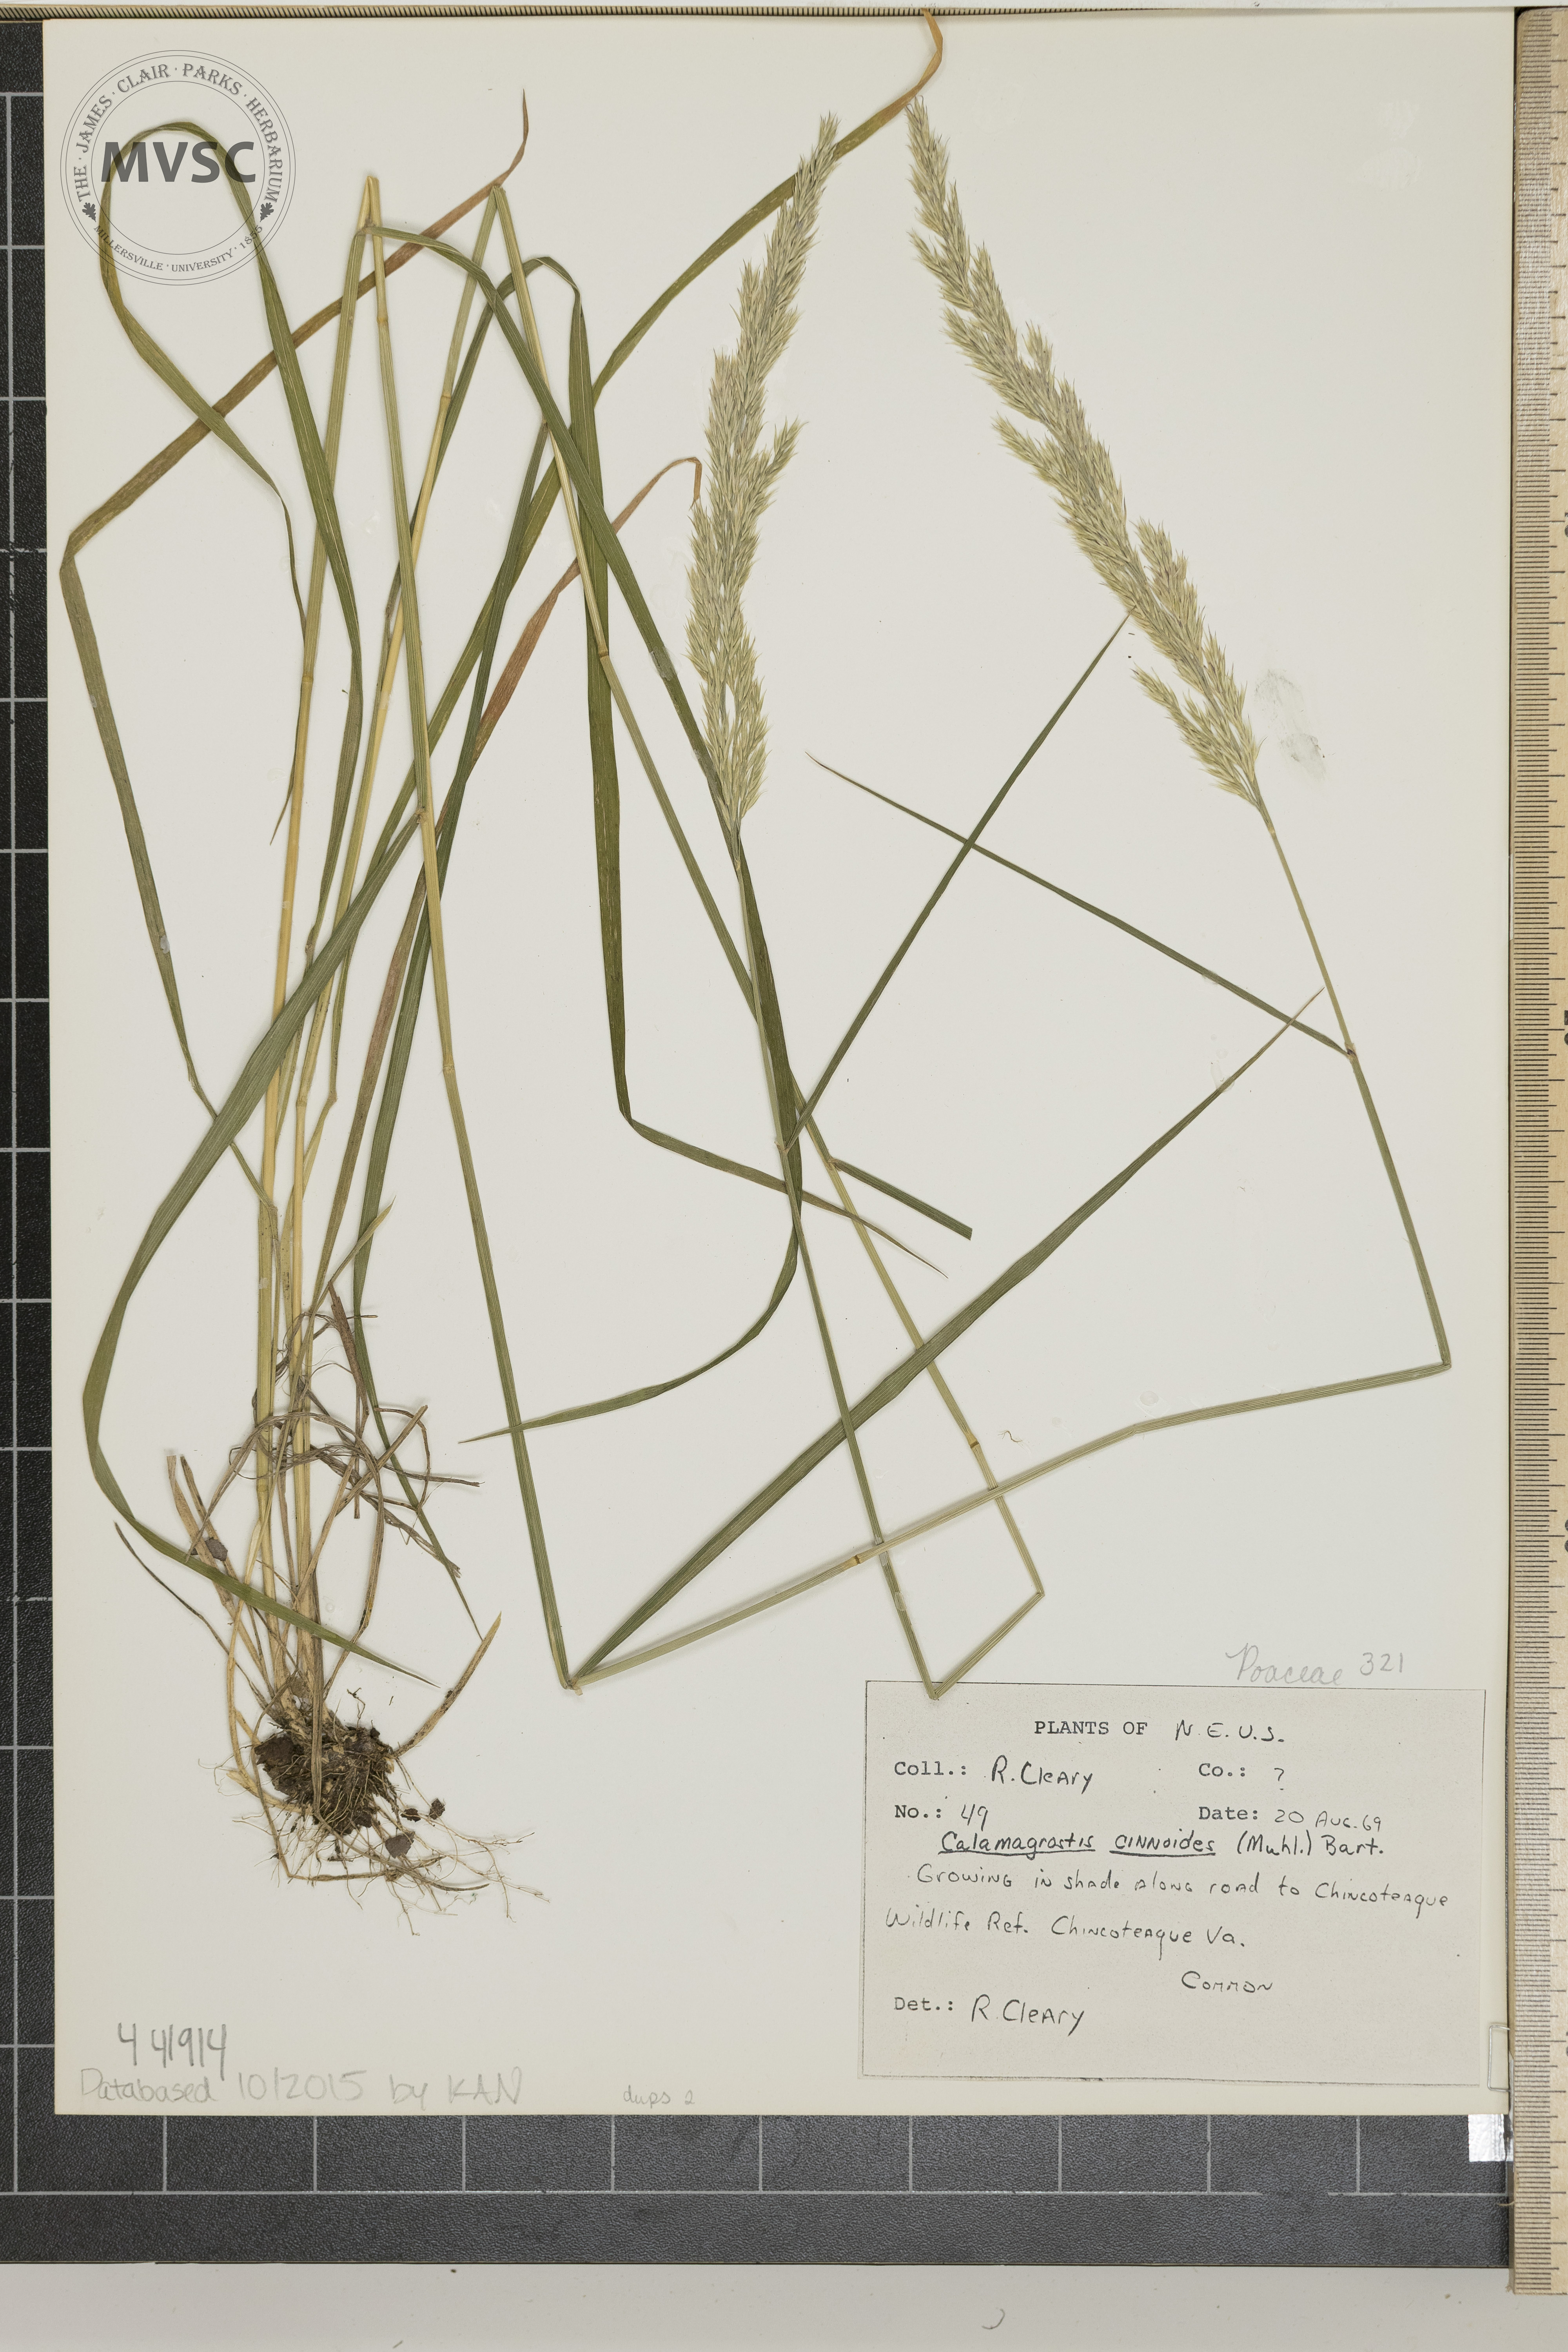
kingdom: Plantae
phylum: Tracheophyta
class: Liliopsida
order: Poales
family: Poaceae
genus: Calamagrostis
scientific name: Calamagrostis canadensis
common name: Canada bluejoint
